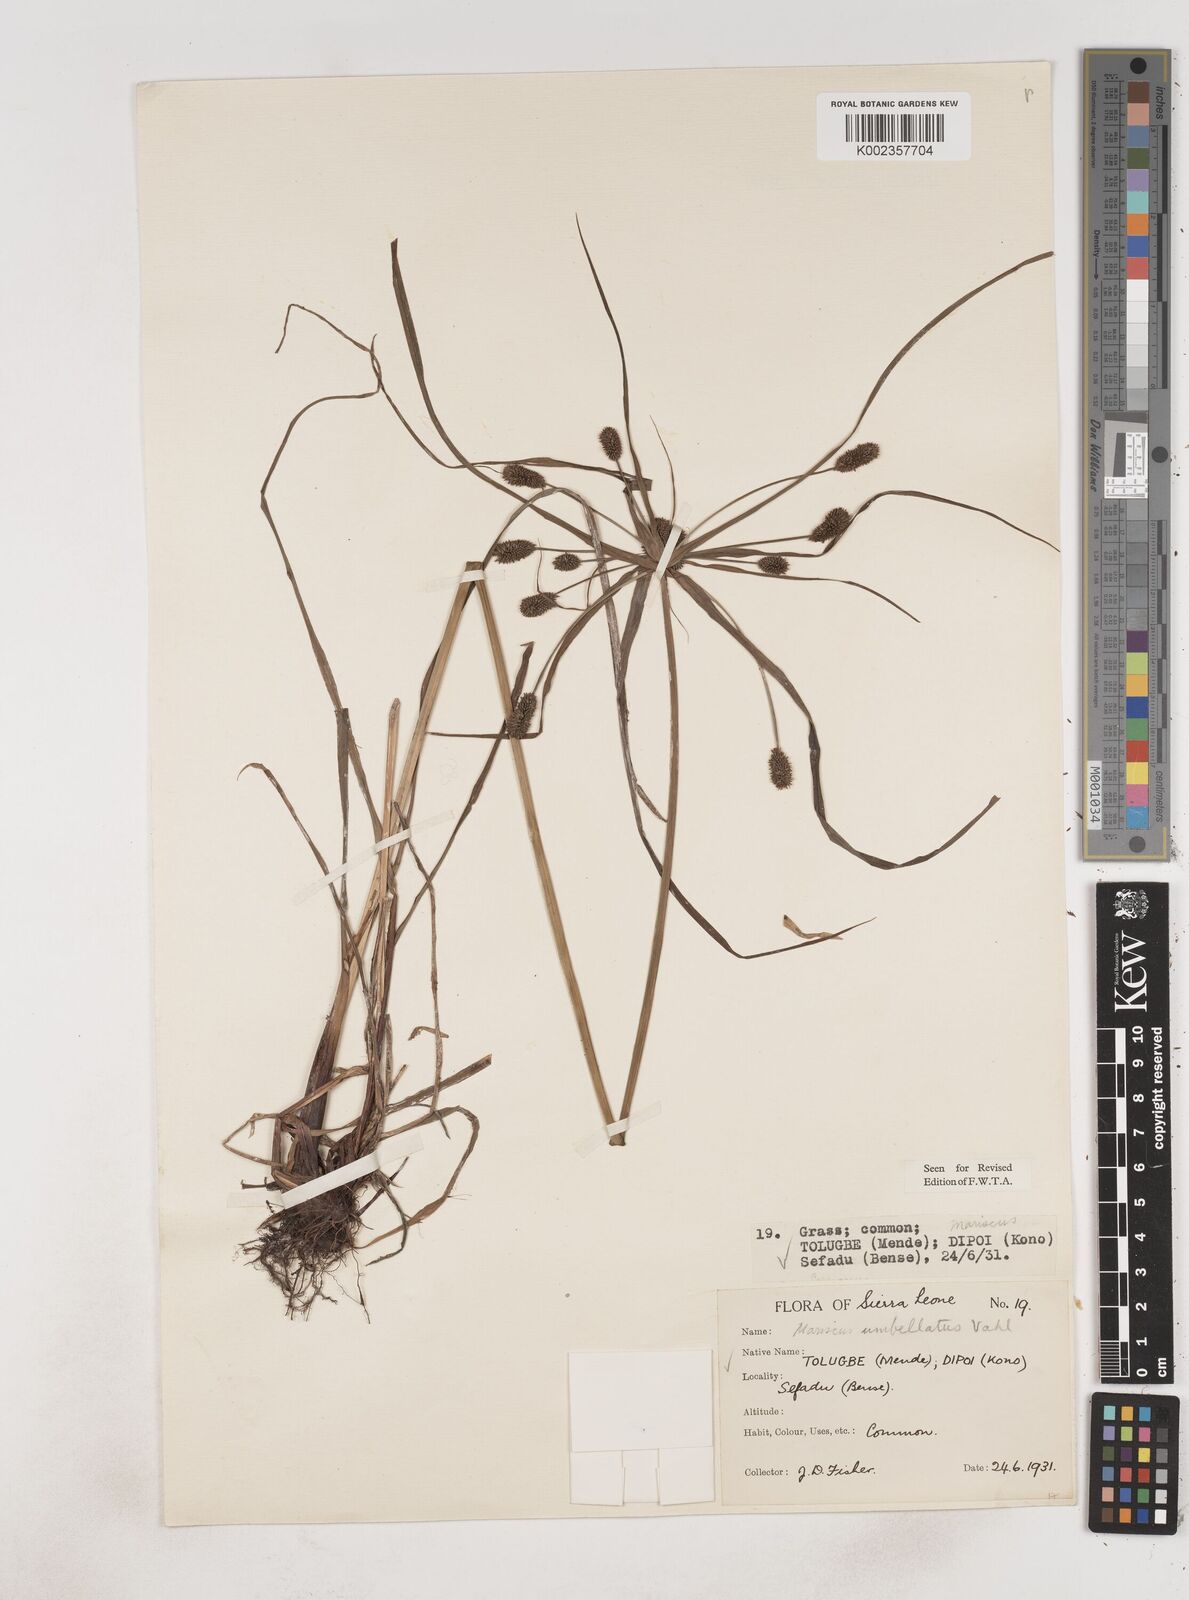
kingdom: Plantae
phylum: Tracheophyta
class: Liliopsida
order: Poales
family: Cyperaceae
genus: Cyperus
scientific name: Cyperus sublimis
